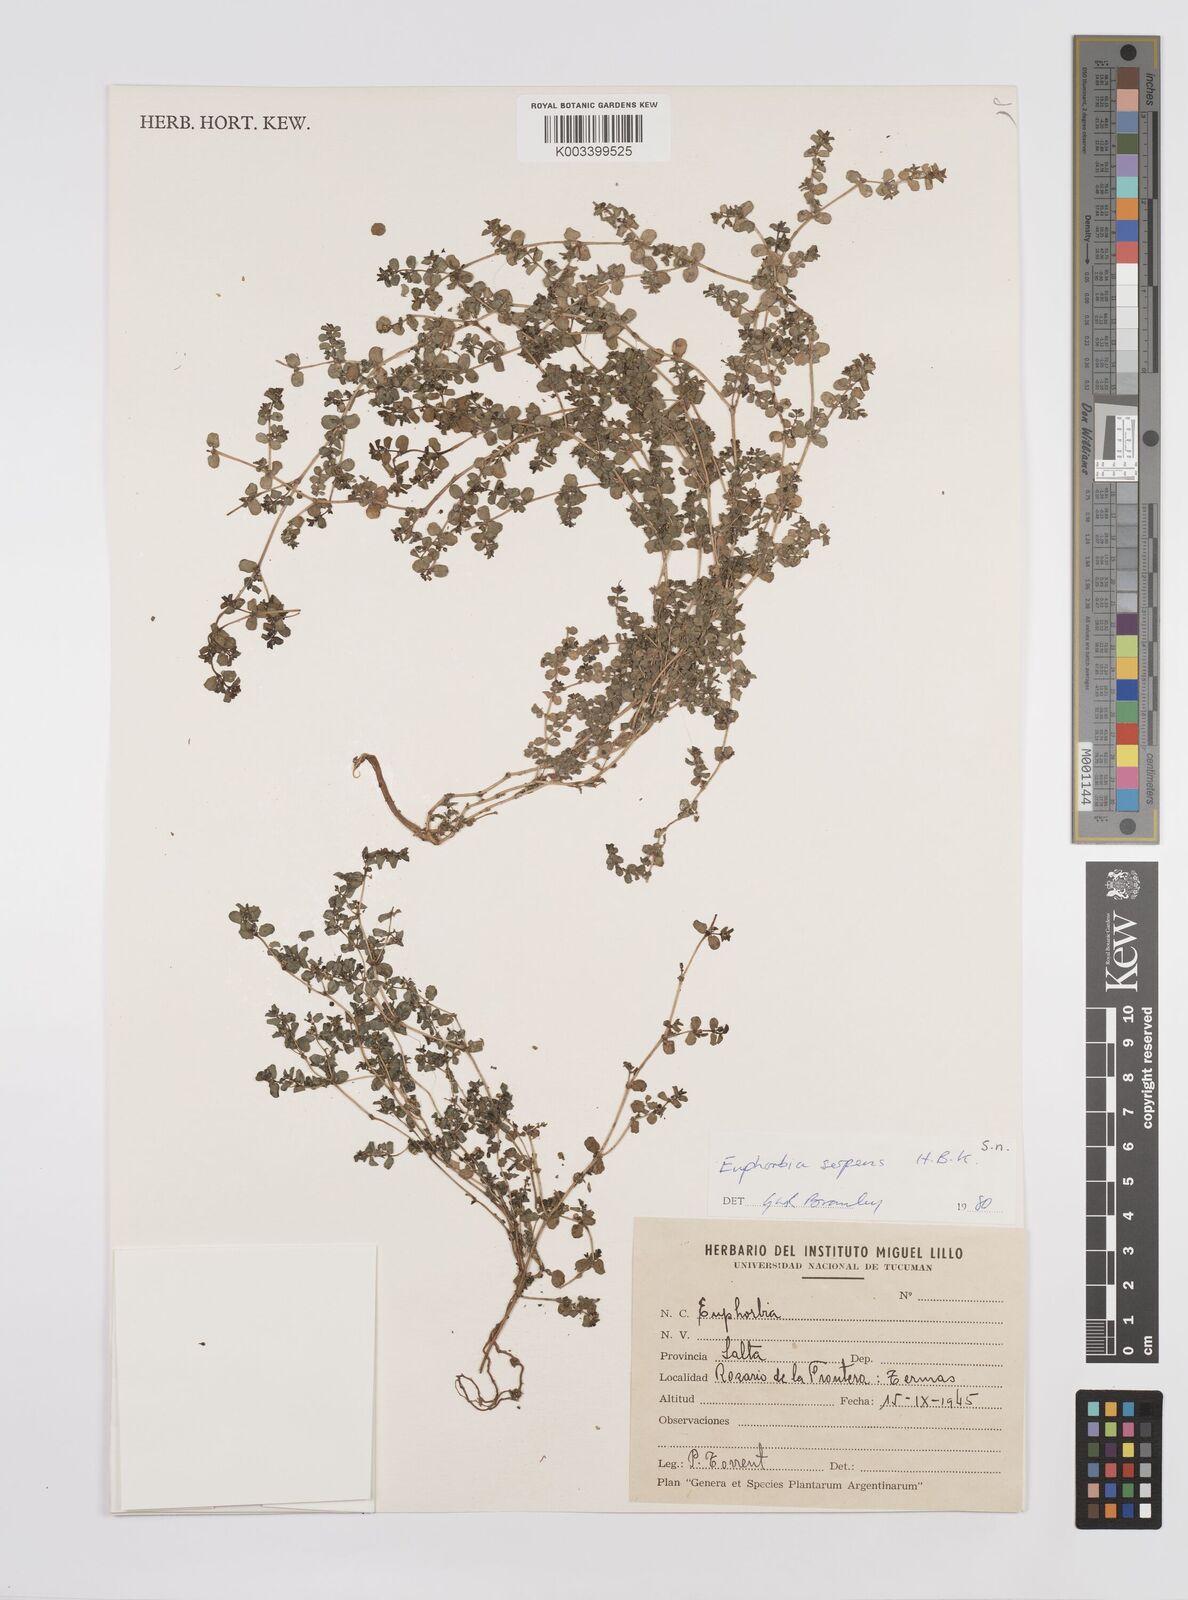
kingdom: Plantae
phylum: Tracheophyta
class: Magnoliopsida
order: Malpighiales
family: Euphorbiaceae
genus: Euphorbia
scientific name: Euphorbia
